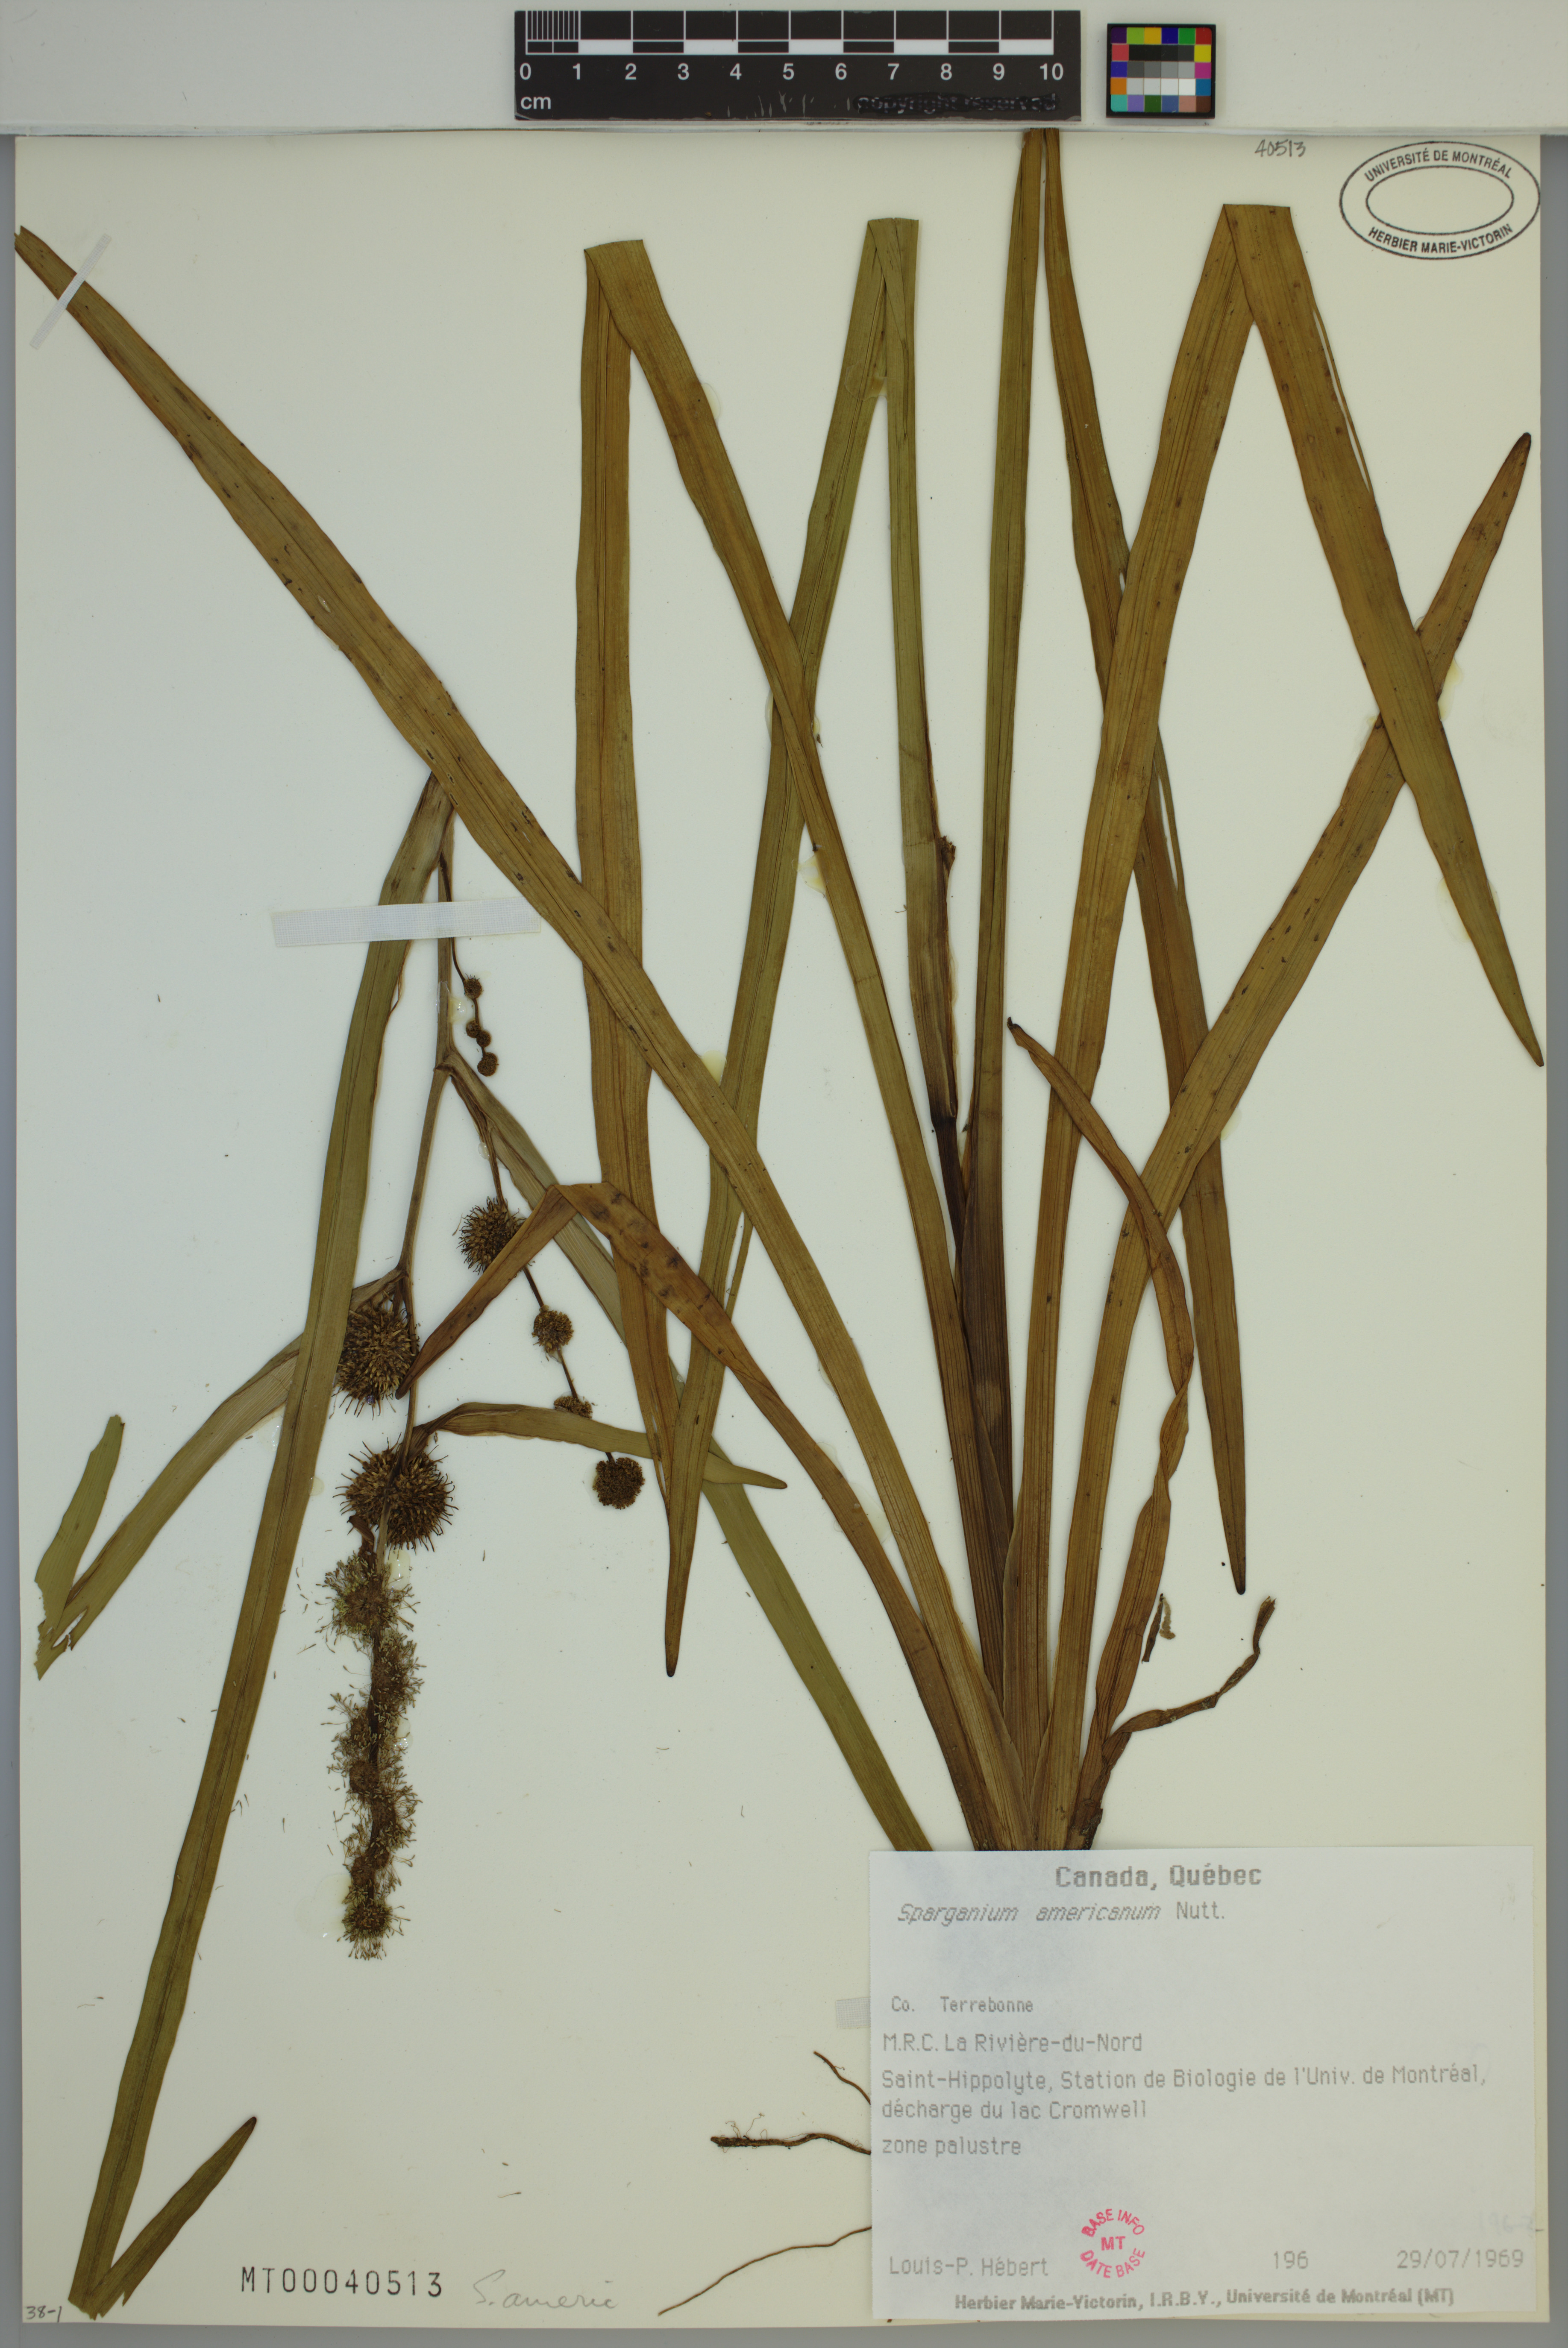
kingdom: Plantae
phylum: Tracheophyta
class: Liliopsida
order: Poales
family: Typhaceae
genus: Sparganium
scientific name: Sparganium americanum
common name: American burreed
